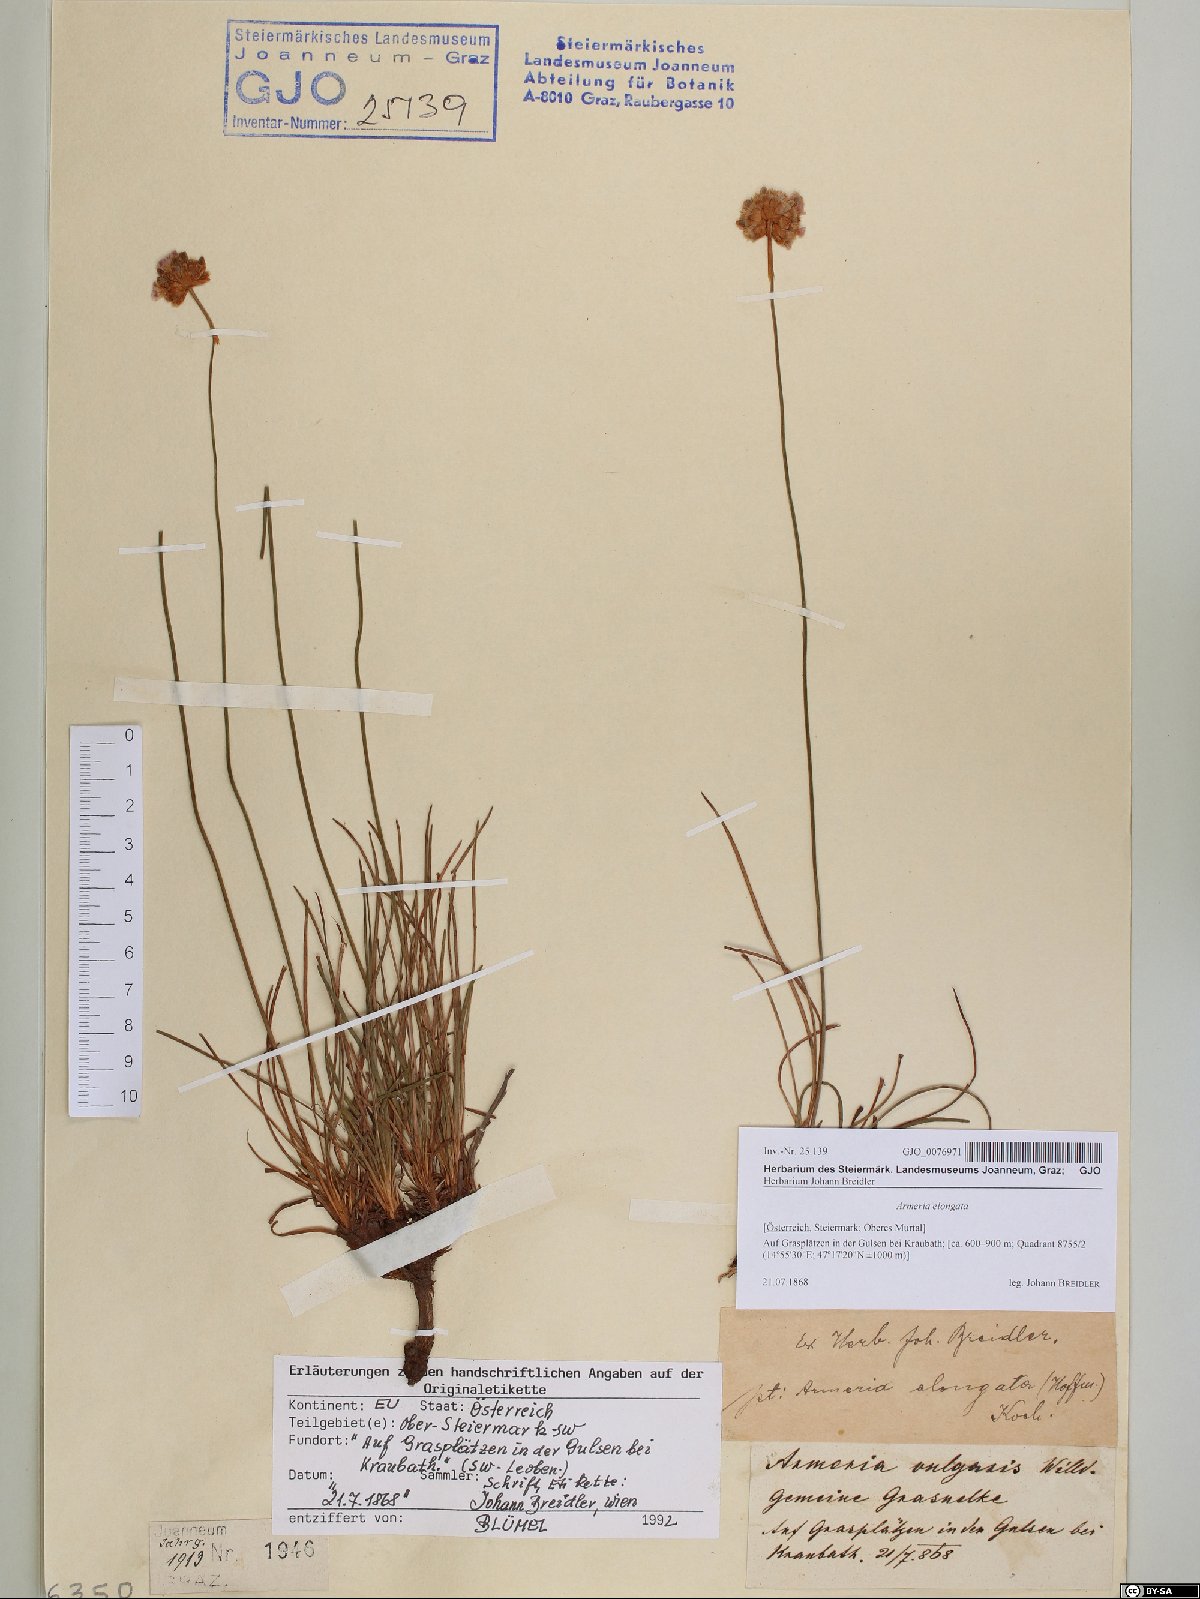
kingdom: Plantae
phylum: Tracheophyta
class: Magnoliopsida
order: Caryophyllales
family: Plumbaginaceae
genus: Armeria
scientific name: Armeria maritima
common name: Thrift
